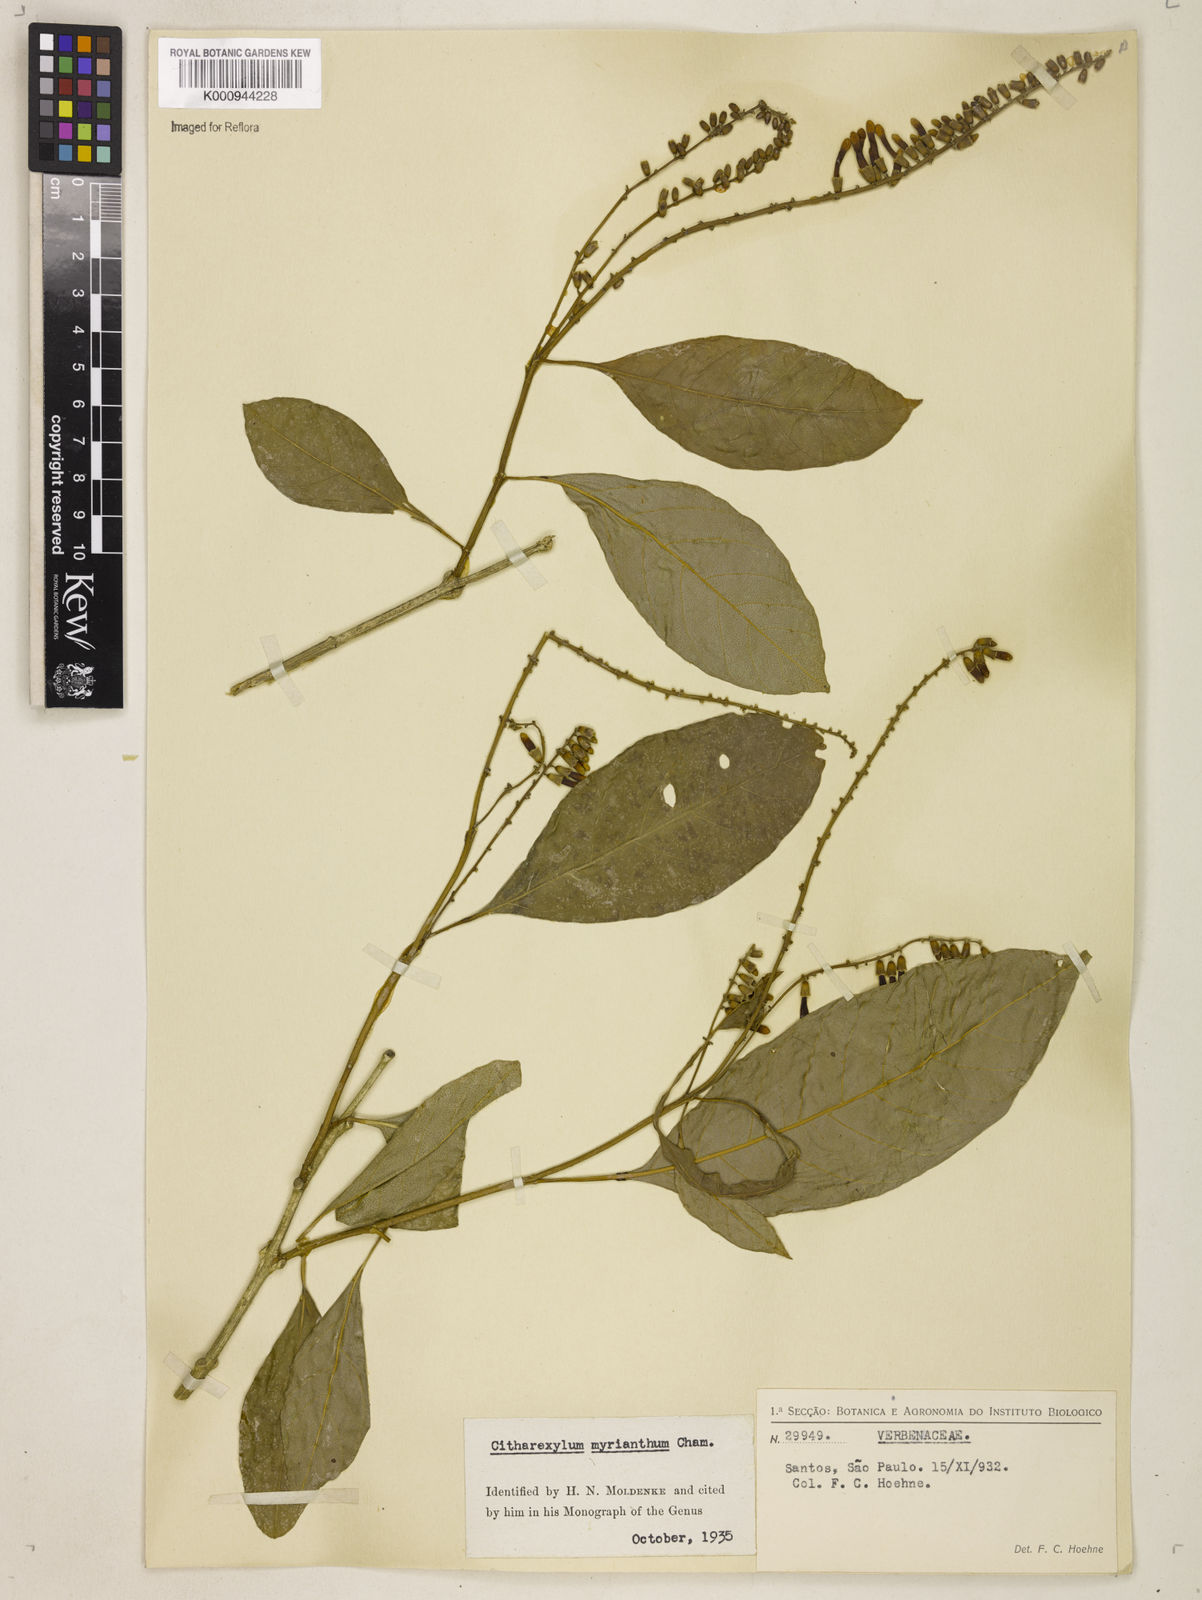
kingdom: Plantae
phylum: Tracheophyta
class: Magnoliopsida
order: Lamiales
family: Verbenaceae
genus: Citharexylum
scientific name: Citharexylum myrianthum
